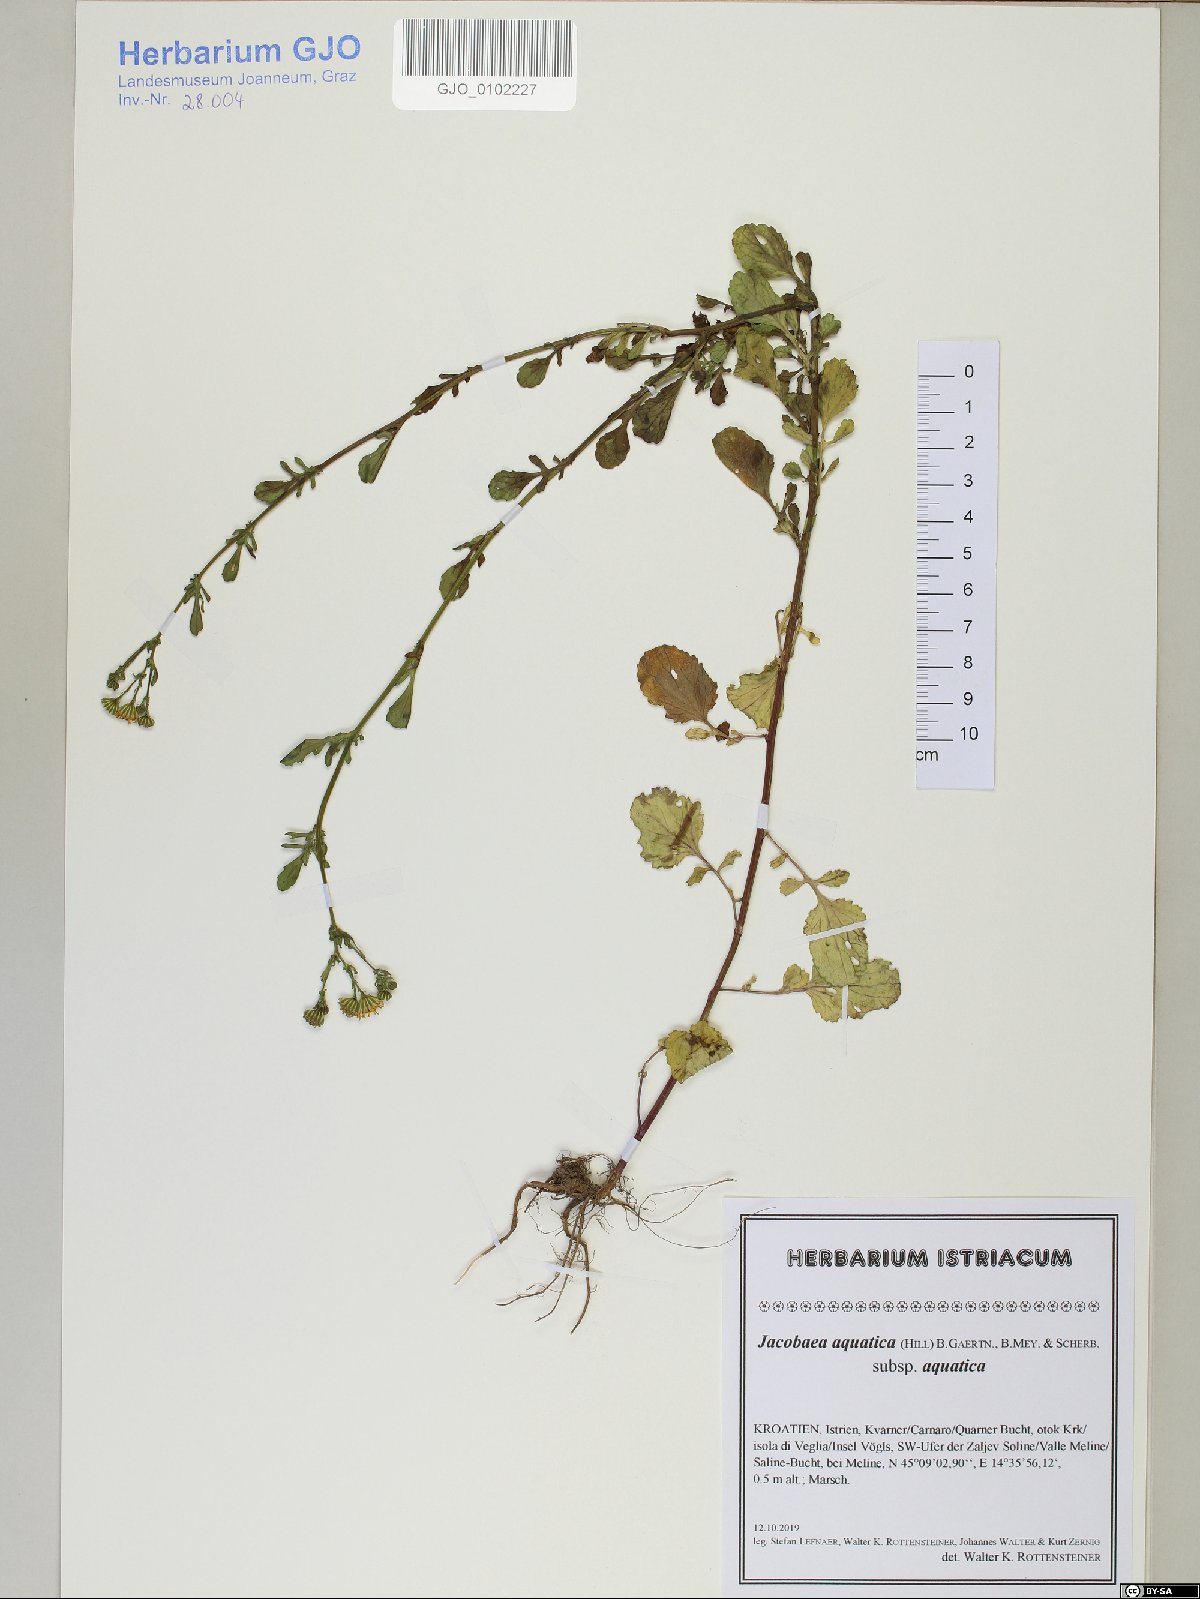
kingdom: Plantae
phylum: Tracheophyta
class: Magnoliopsida
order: Asterales
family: Asteraceae
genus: Jacobaea
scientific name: Jacobaea aquatica
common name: Water ragwort
